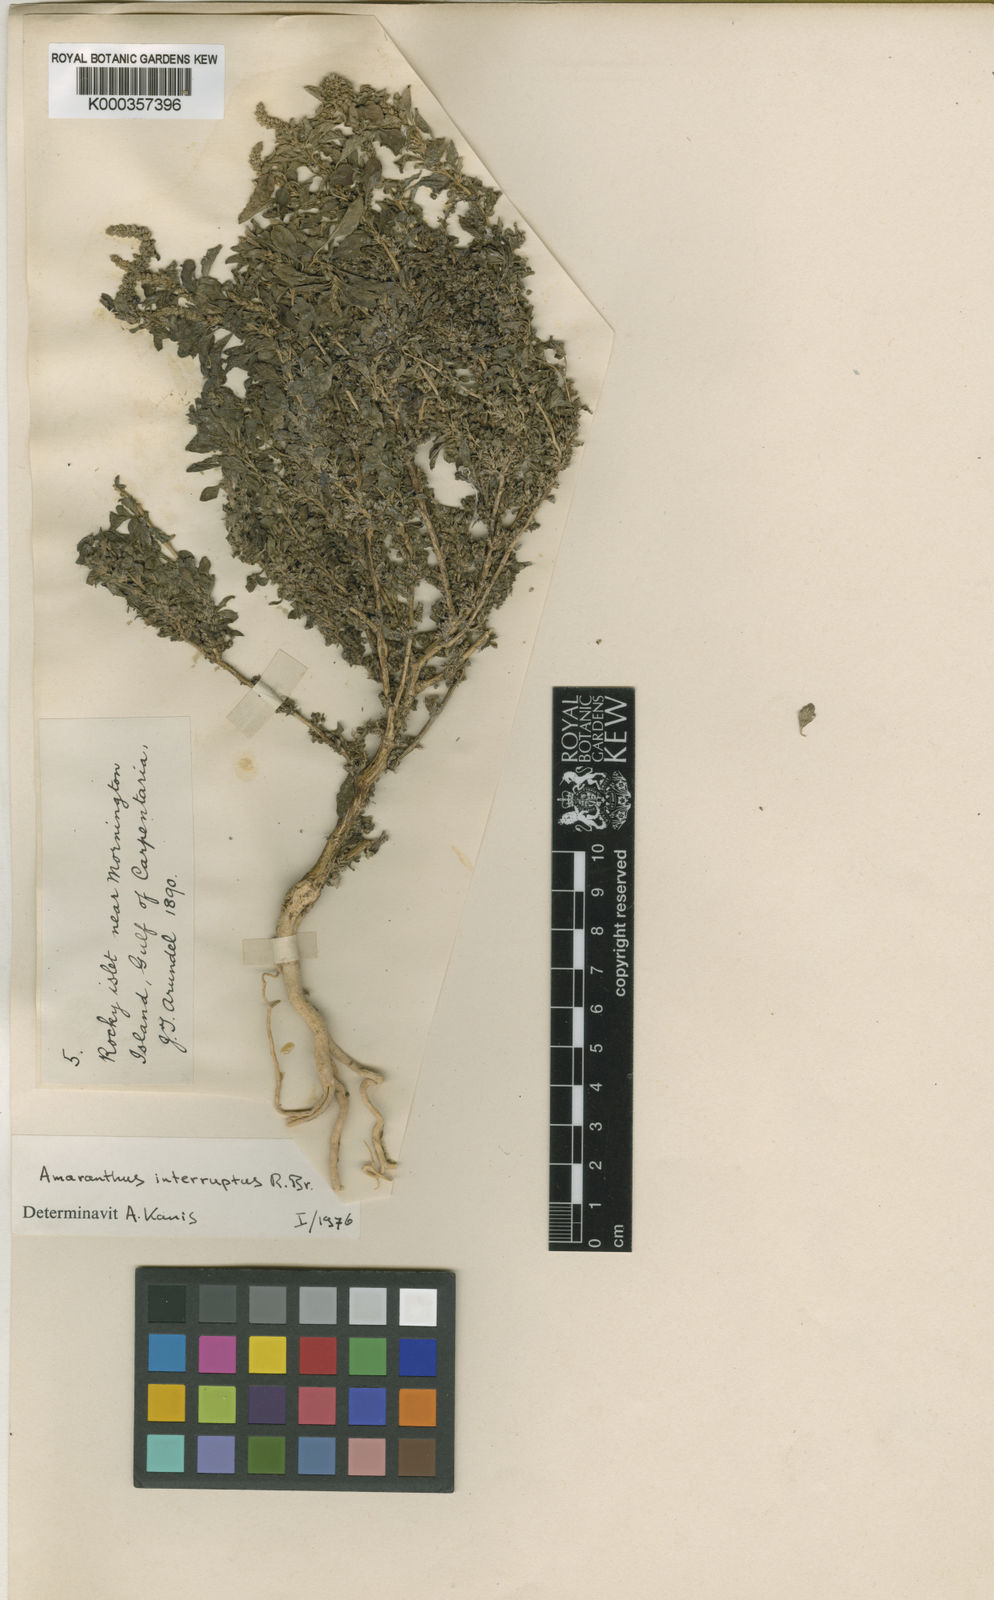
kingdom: Plantae
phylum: Tracheophyta
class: Magnoliopsida
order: Caryophyllales
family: Amaranthaceae
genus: Amaranthus
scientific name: Amaranthus interruptus
